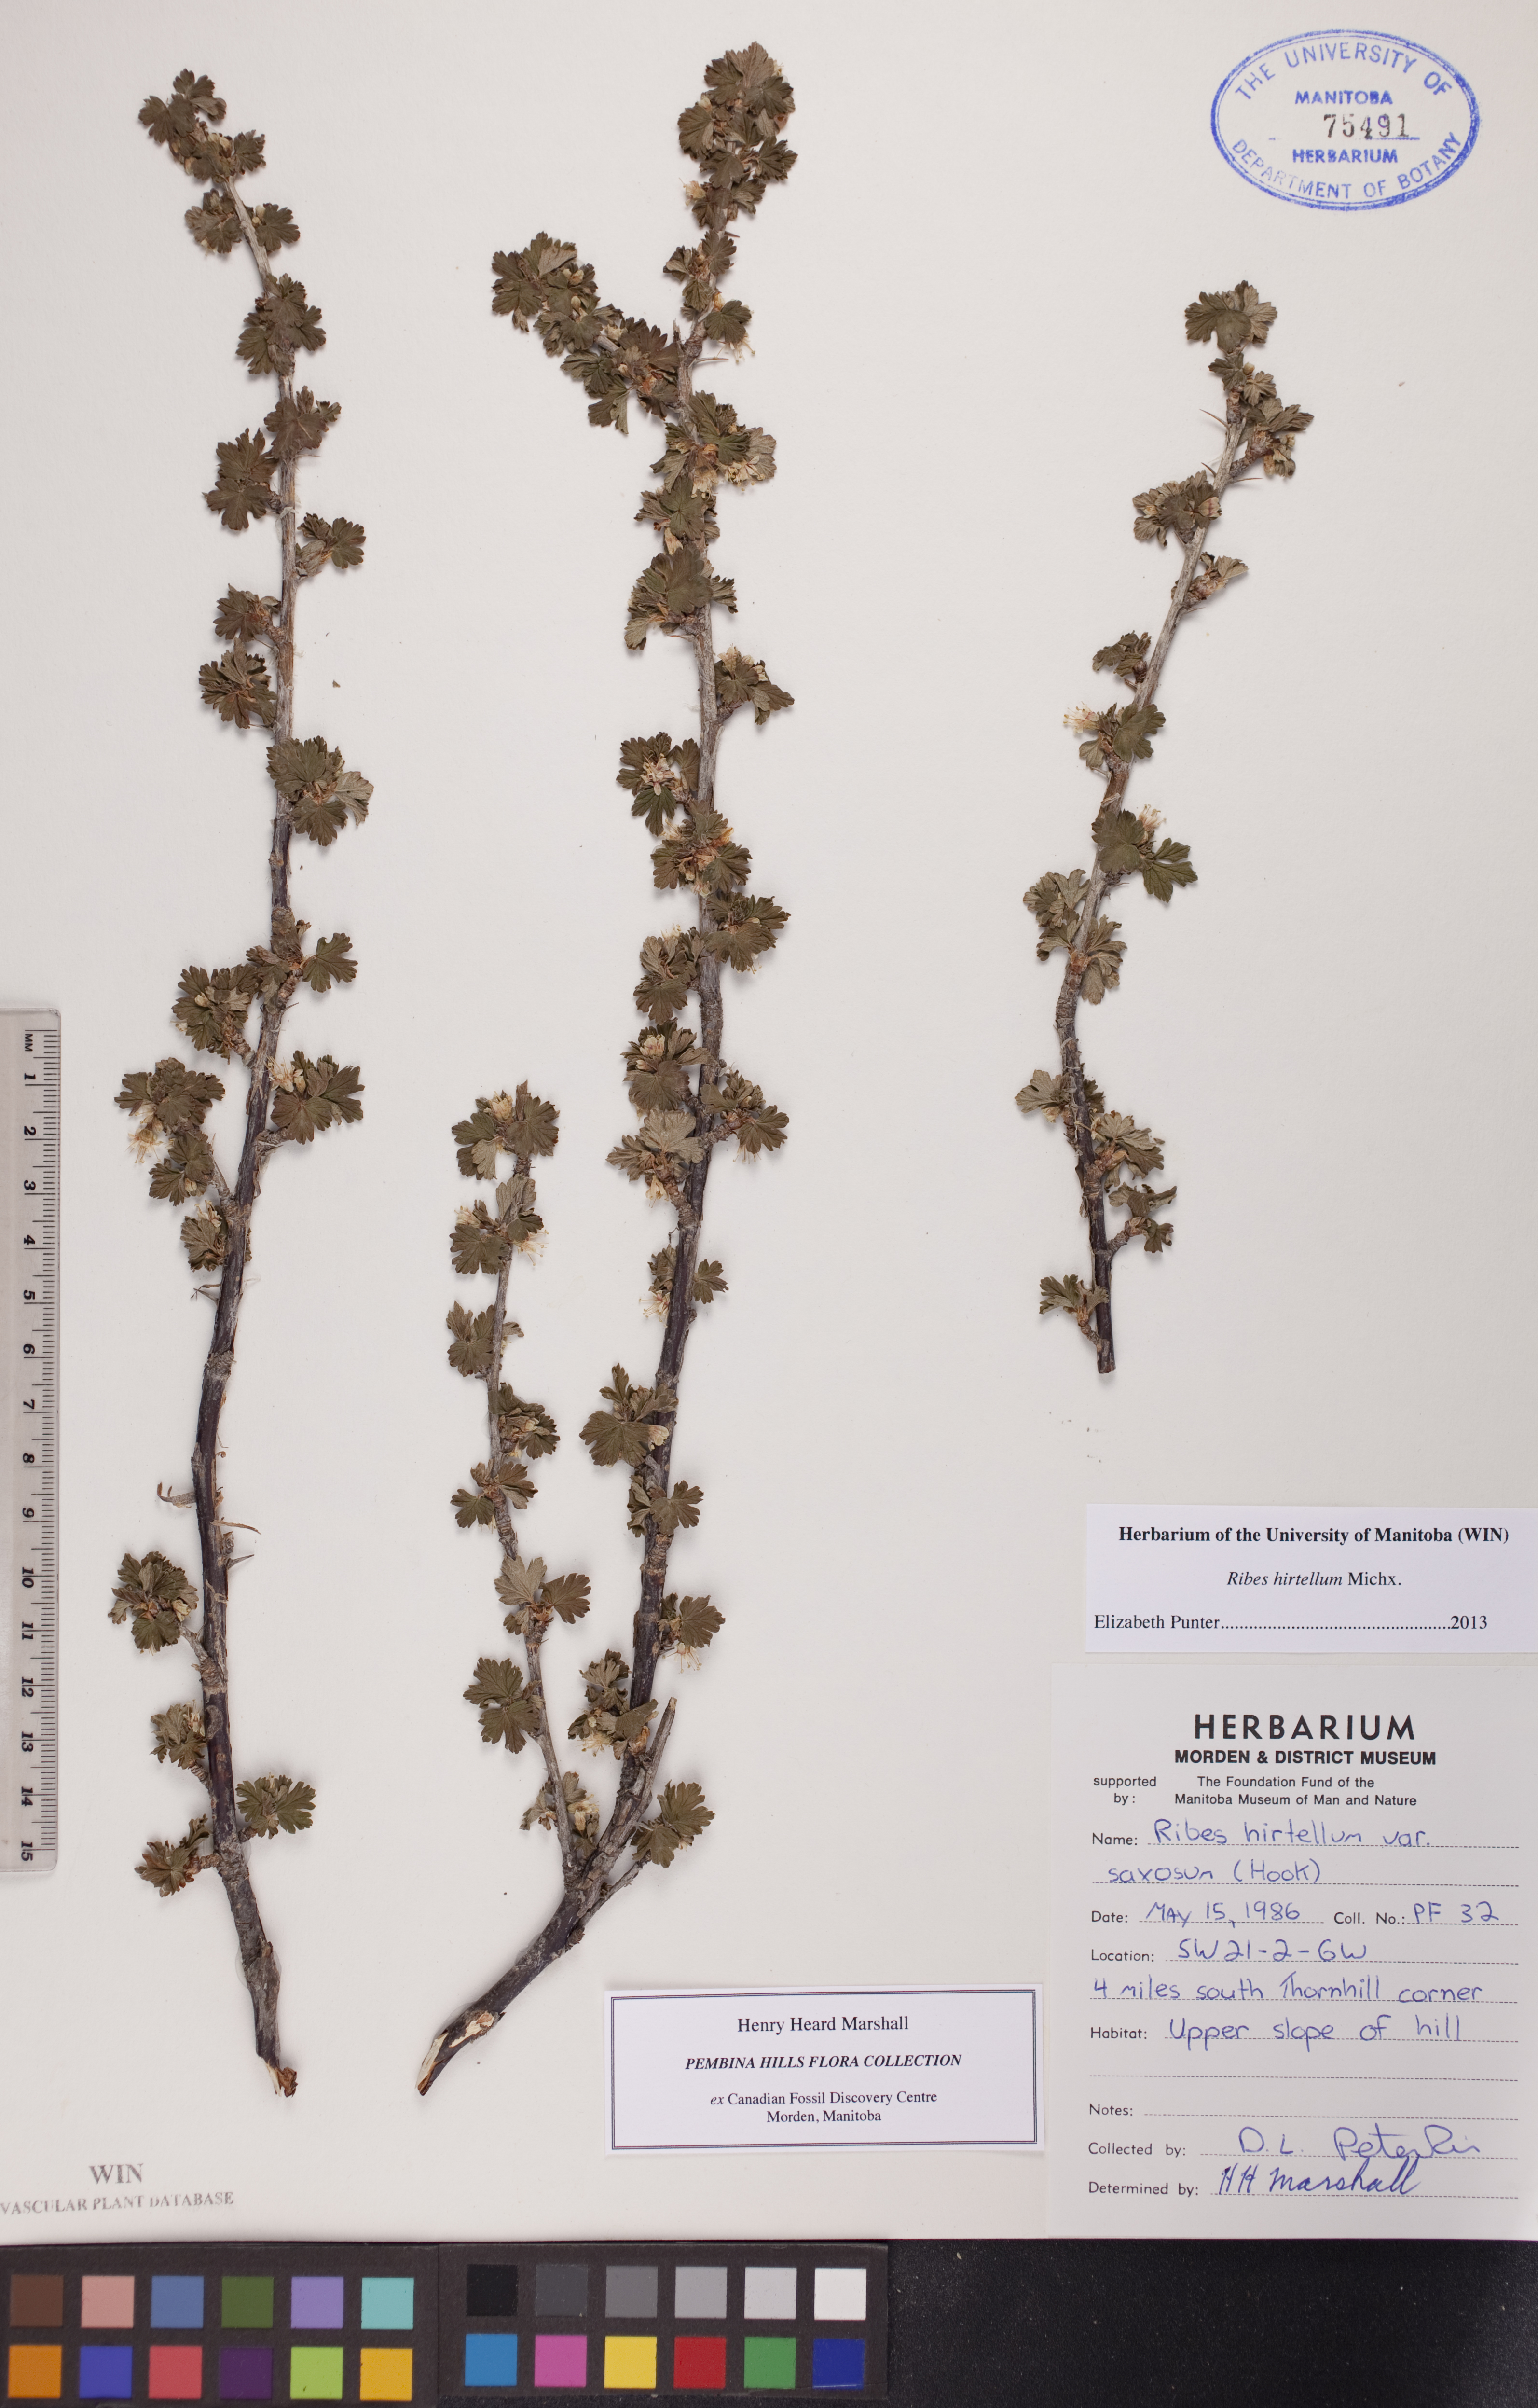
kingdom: Plantae
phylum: Tracheophyta
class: Magnoliopsida
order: Saxifragales
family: Grossulariaceae
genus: Ribes
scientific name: Ribes hirtellum
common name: Hairy gooseberry
